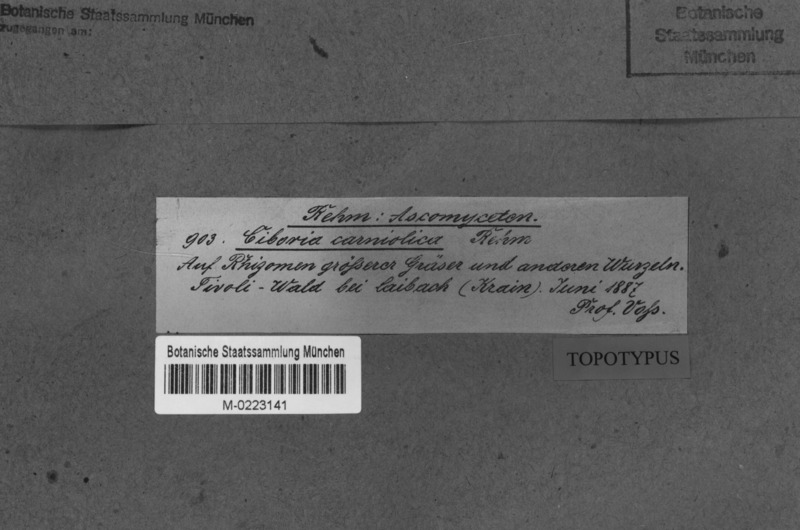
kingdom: Fungi
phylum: Ascomycota
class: Leotiomycetes
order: Helotiales
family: Sclerotiniaceae
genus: Ciboria
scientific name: Ciboria
